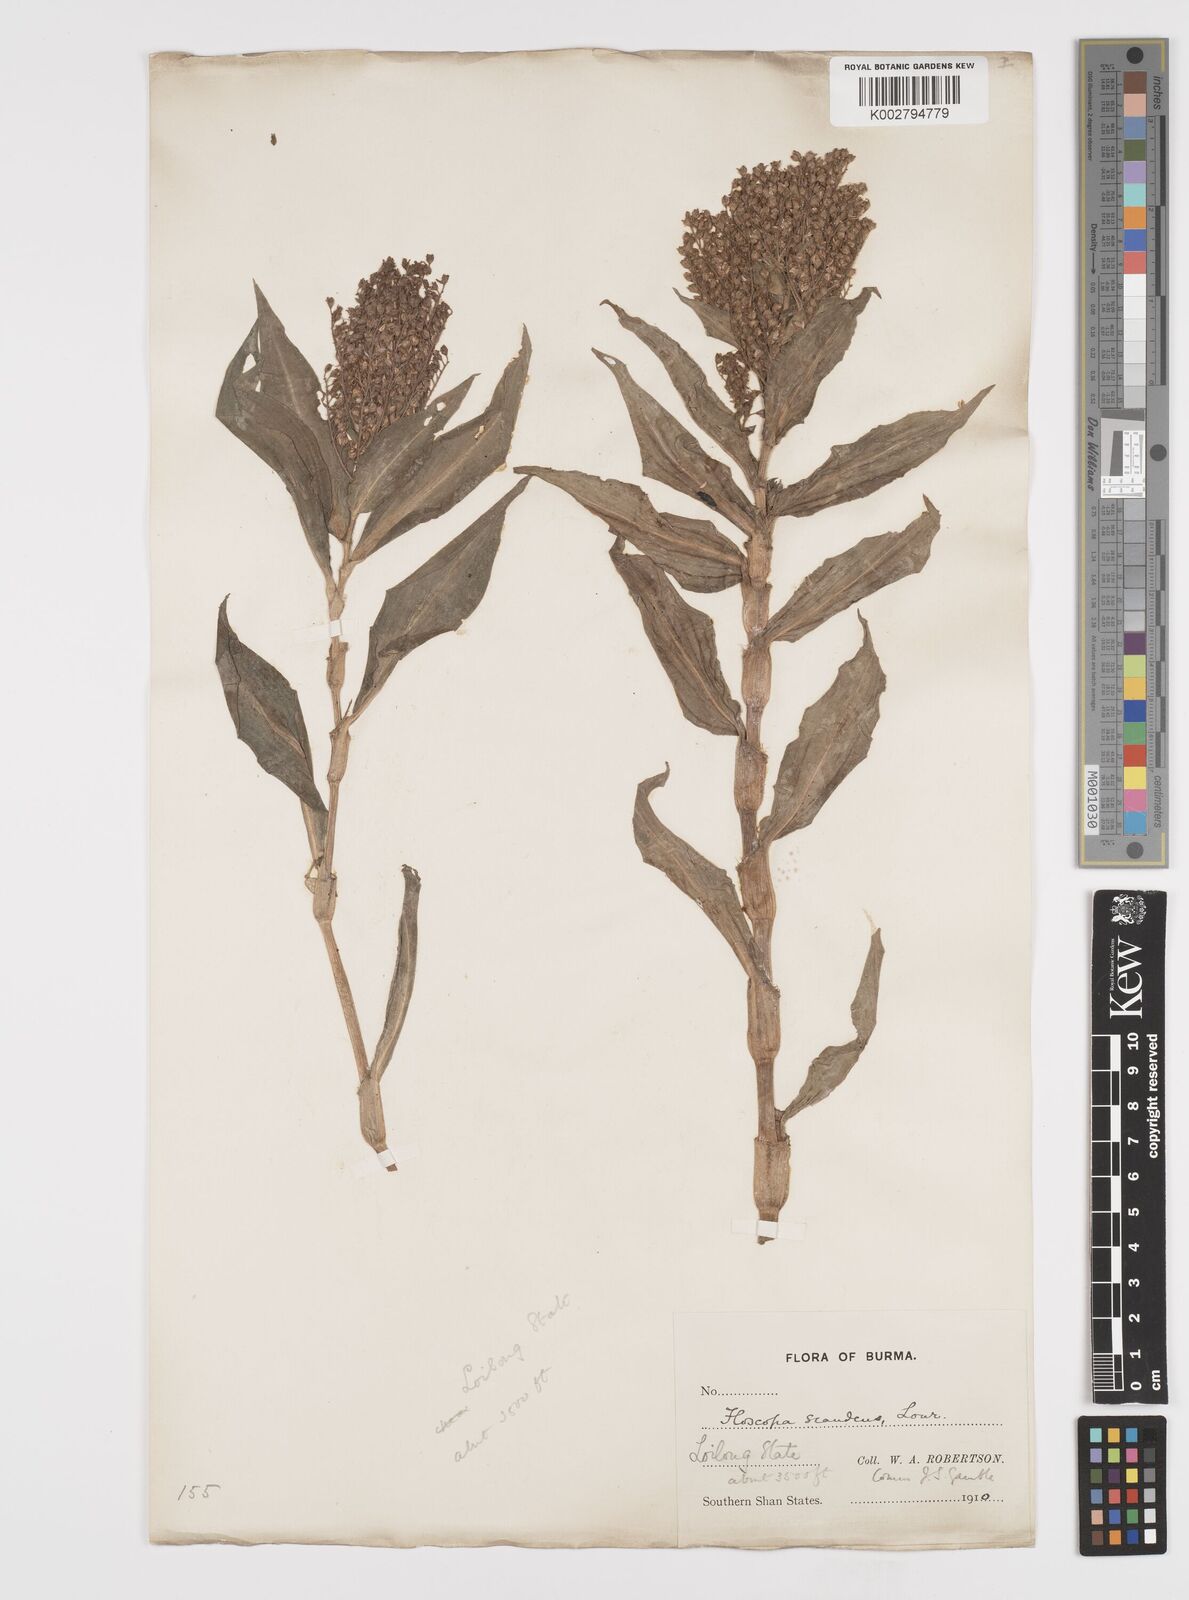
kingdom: Plantae
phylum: Tracheophyta
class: Liliopsida
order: Commelinales
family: Commelinaceae
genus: Floscopa
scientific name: Floscopa scandens
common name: Climbing flower cup
